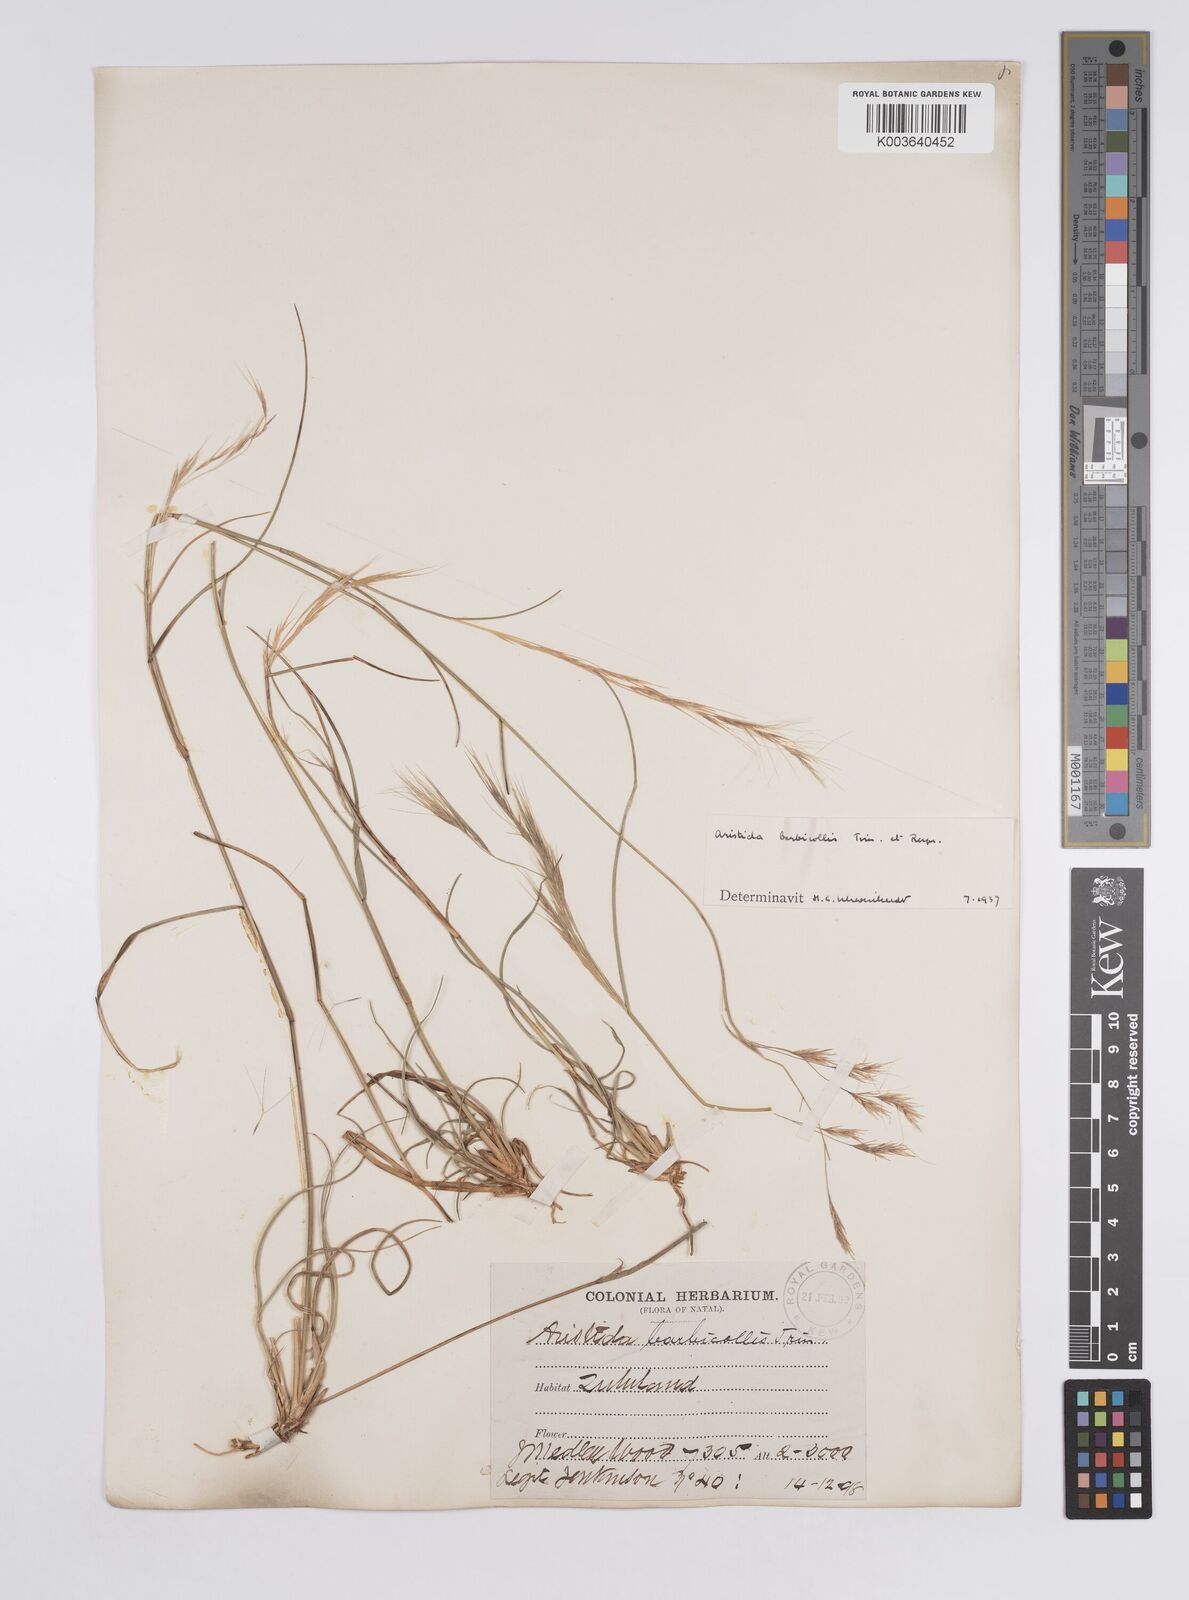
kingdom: Plantae
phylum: Tracheophyta
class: Liliopsida
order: Poales
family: Poaceae
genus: Aristida
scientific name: Aristida barbicollis
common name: Spreading prickle grass
